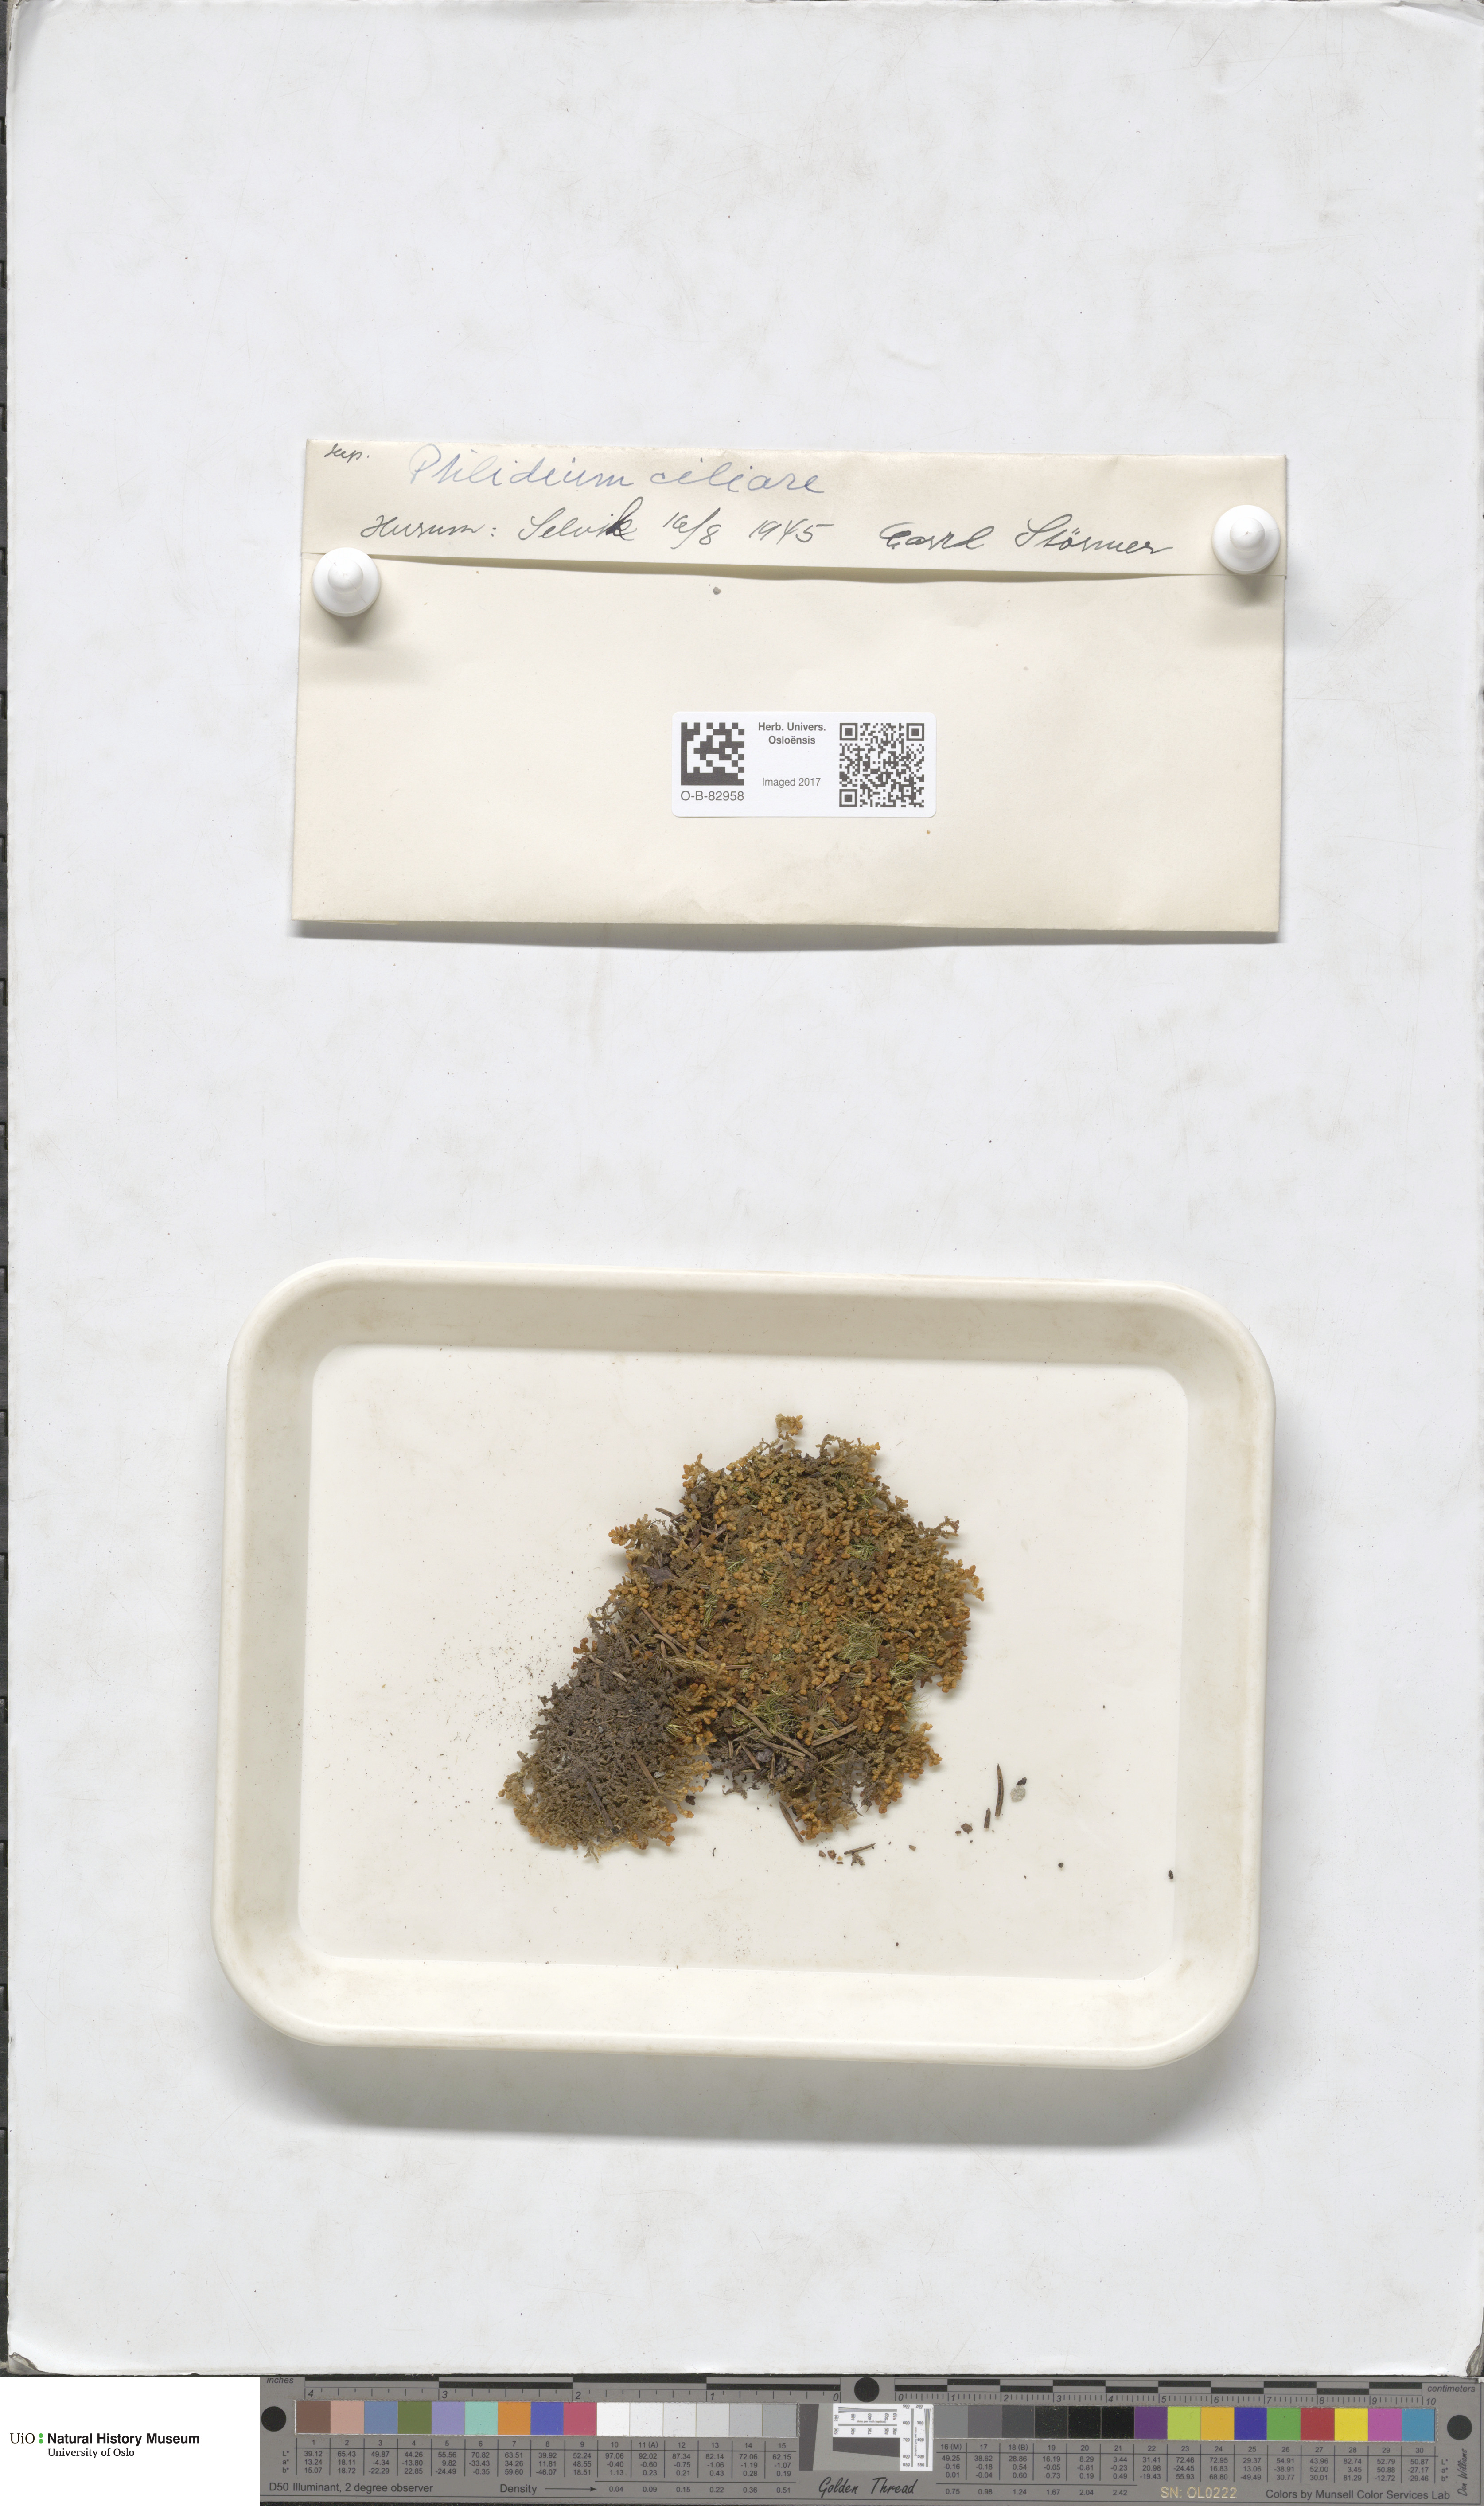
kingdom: Plantae
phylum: Marchantiophyta
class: Jungermanniopsida
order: Ptilidiales
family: Ptilidiaceae
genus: Ptilidium
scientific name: Ptilidium ciliare
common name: Ciliate fringewort
